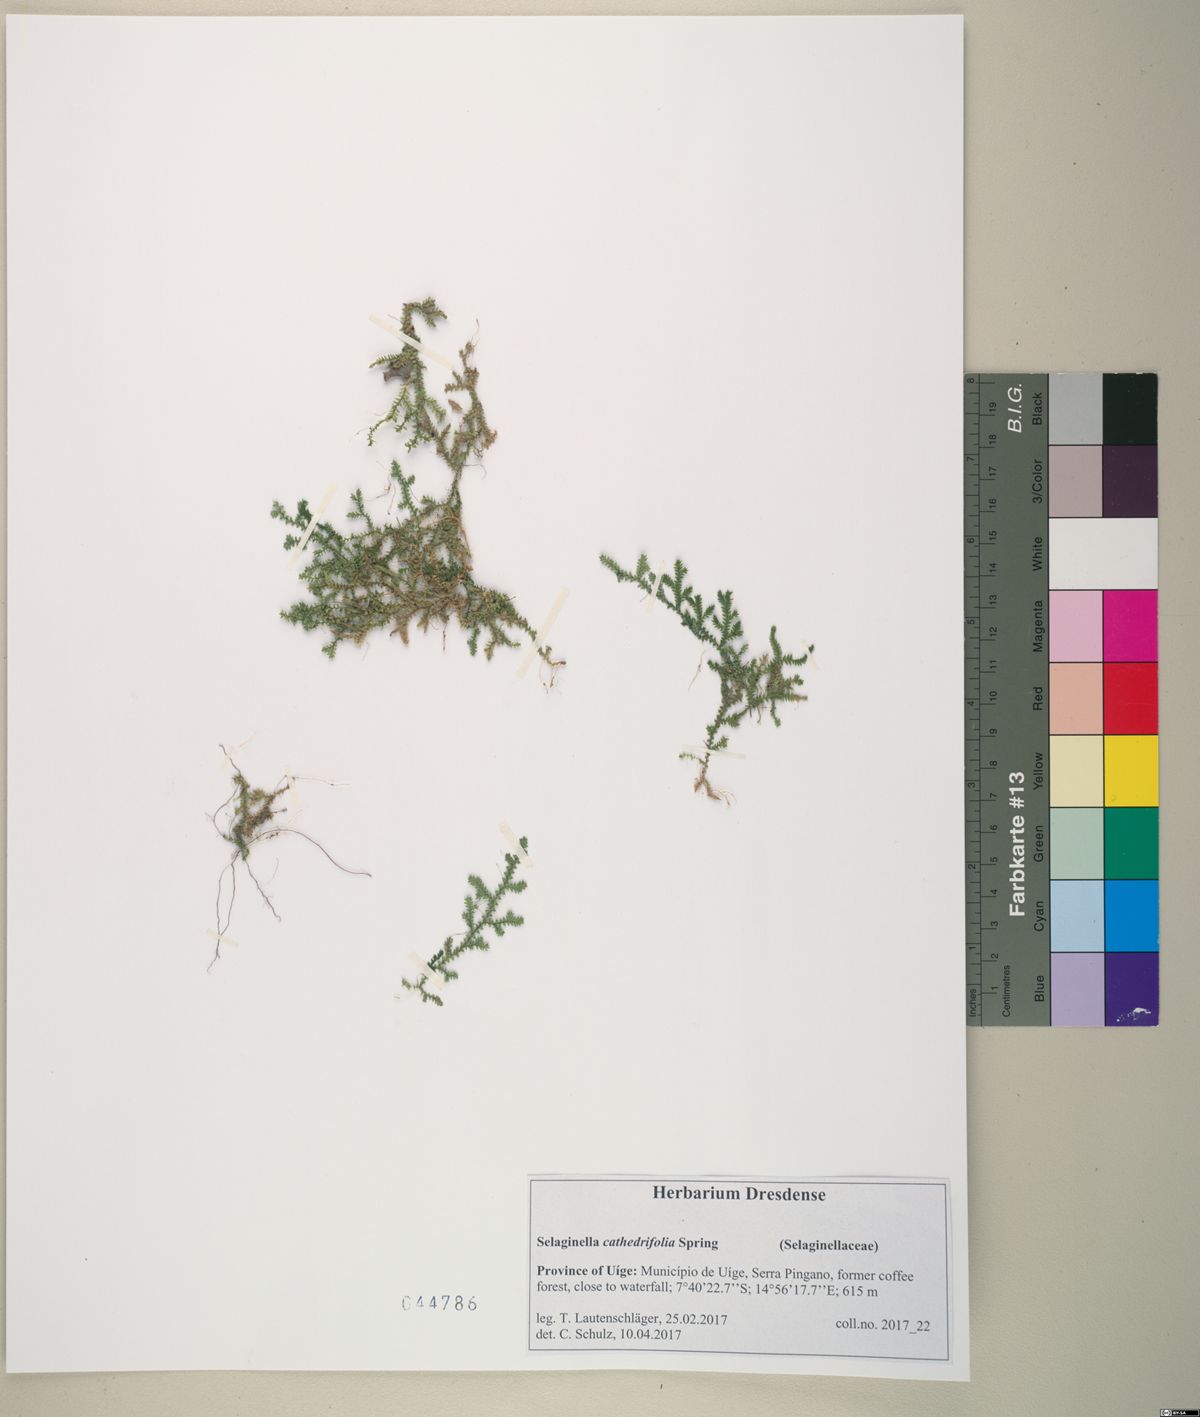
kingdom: Plantae
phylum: Tracheophyta
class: Lycopodiopsida
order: Selaginellales
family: Selaginellaceae
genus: Selaginella
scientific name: Selaginella cathedrifolia
